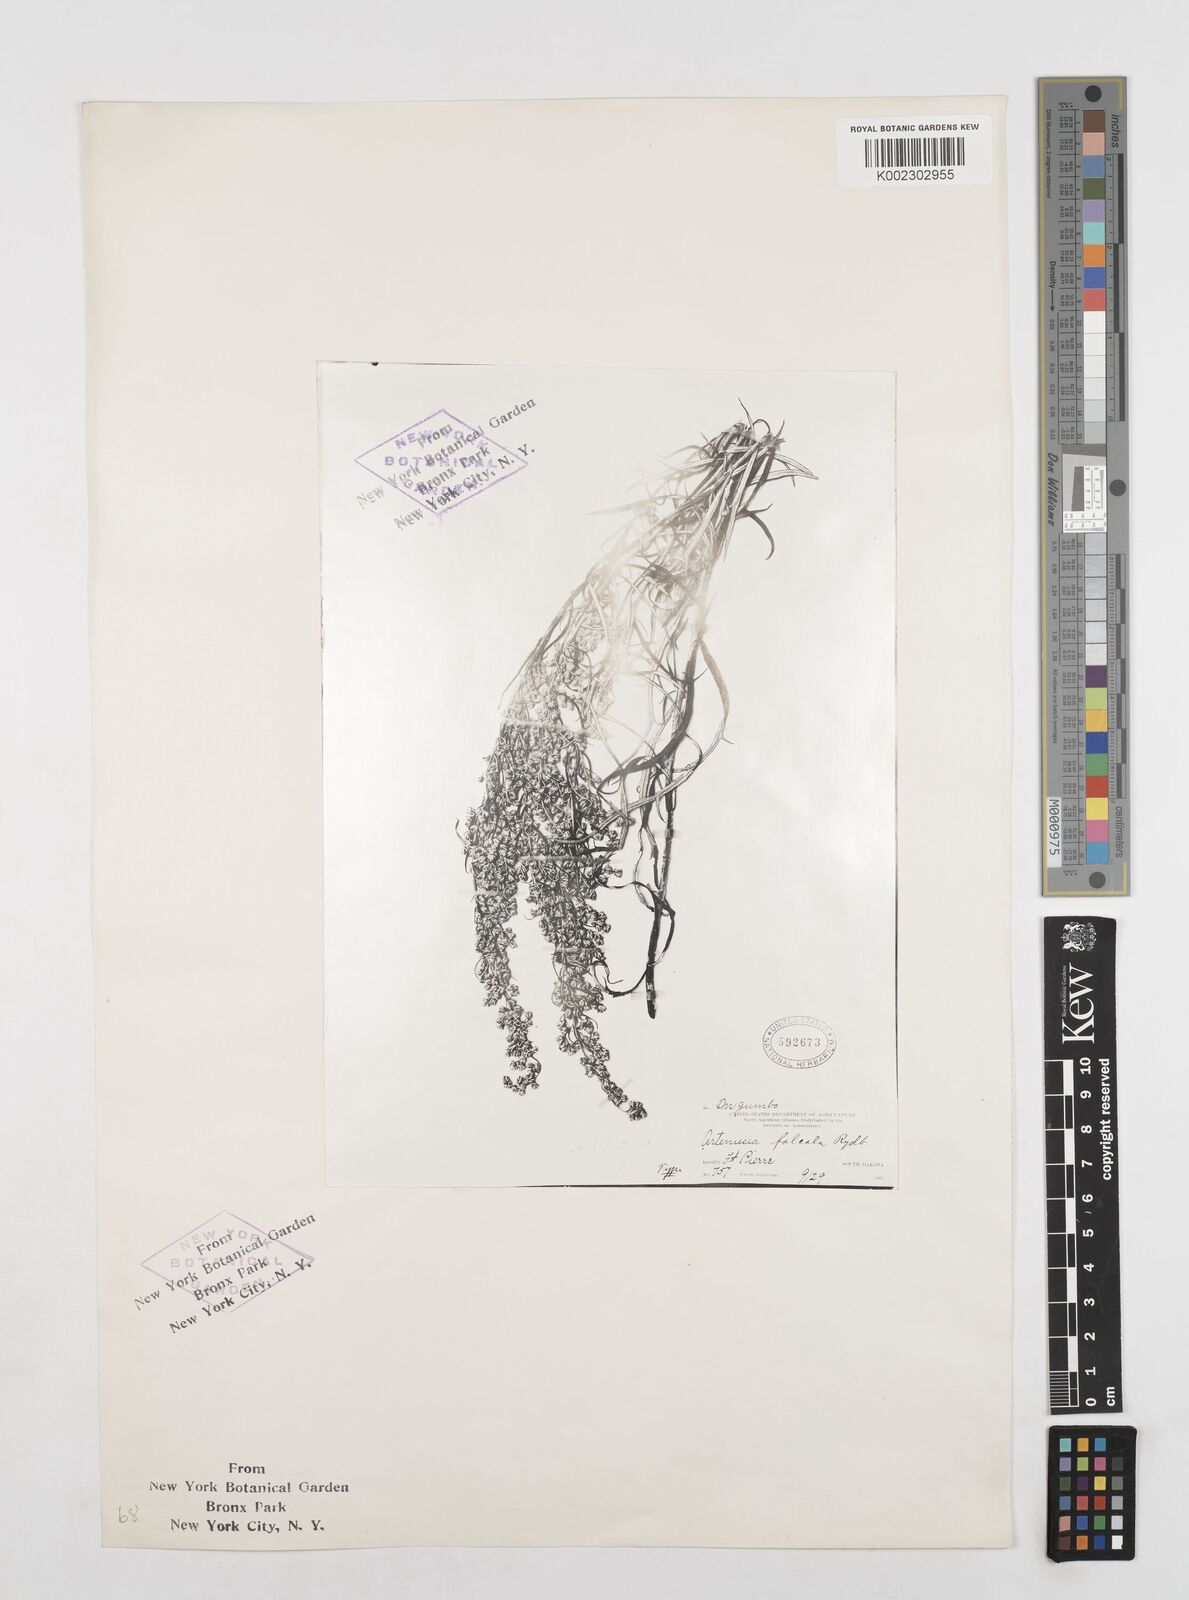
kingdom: Plantae
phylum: Tracheophyta
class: Magnoliopsida
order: Asterales
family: Asteraceae
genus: Artemisia
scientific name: Artemisia integrifolia
